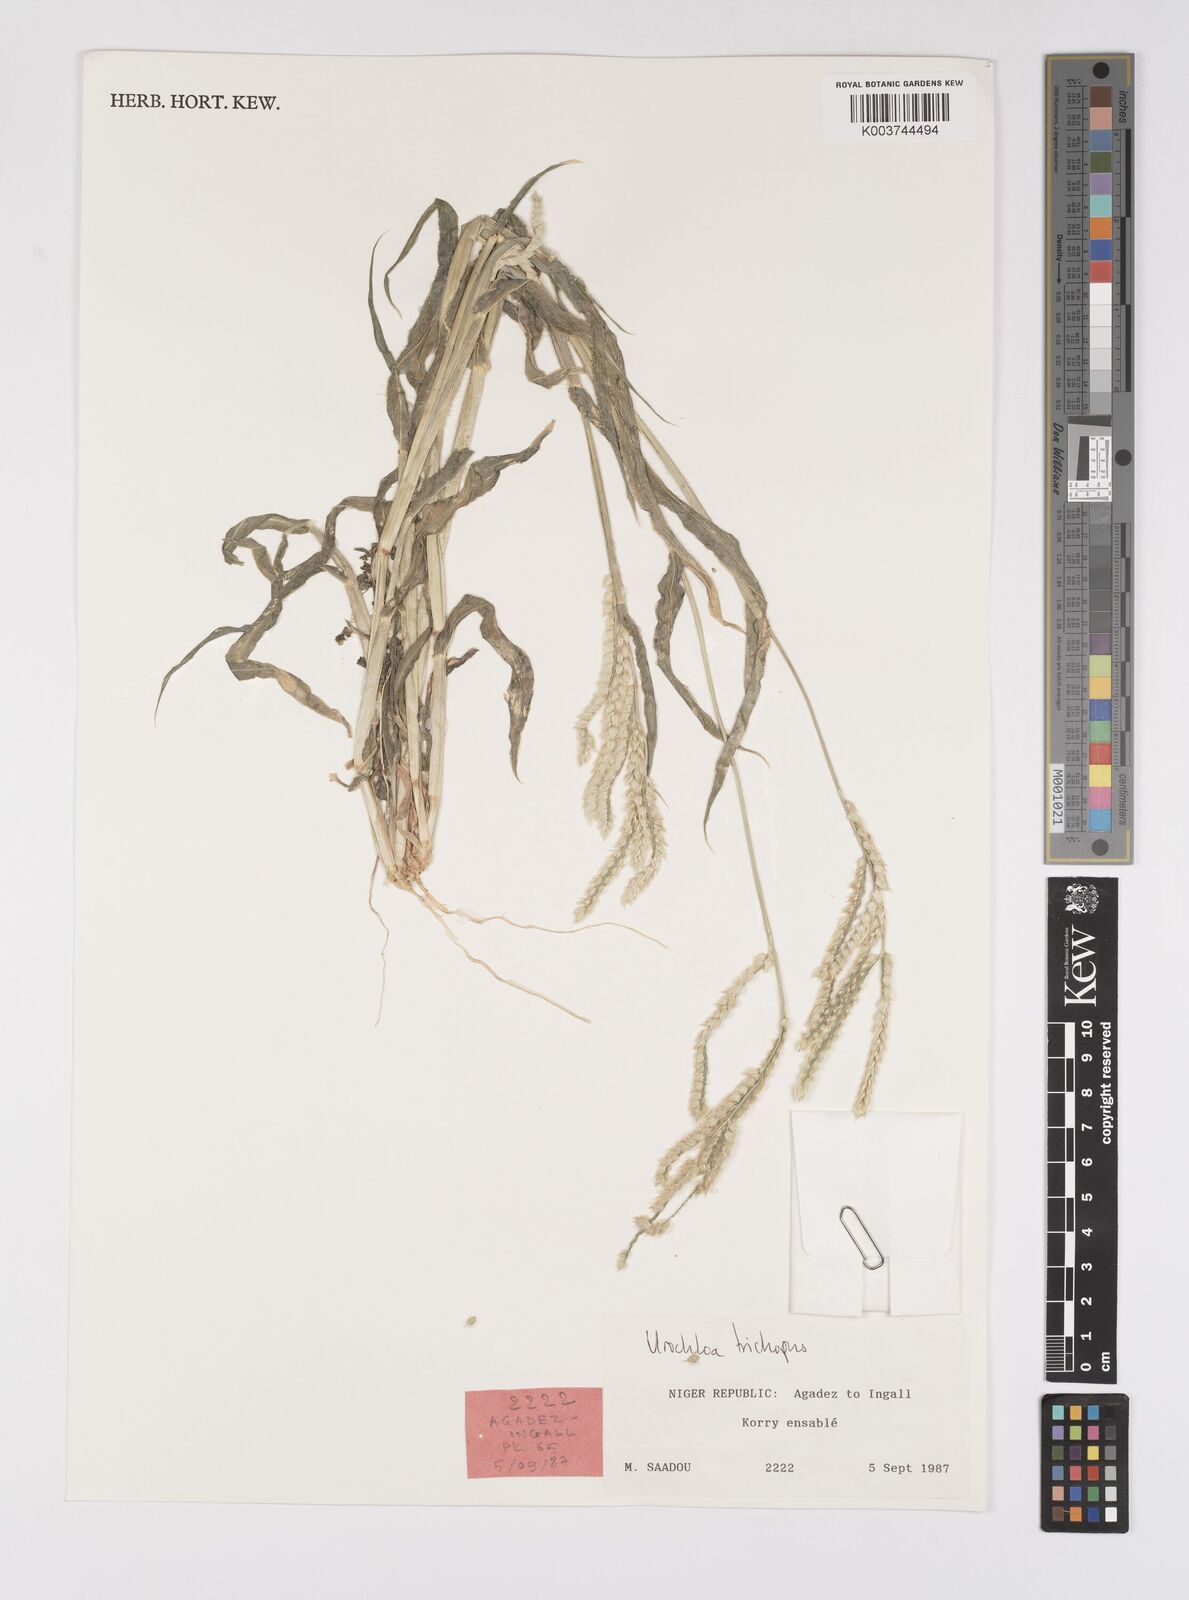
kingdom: Plantae
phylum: Tracheophyta
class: Liliopsida
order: Poales
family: Poaceae
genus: Urochloa
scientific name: Urochloa trichopus
